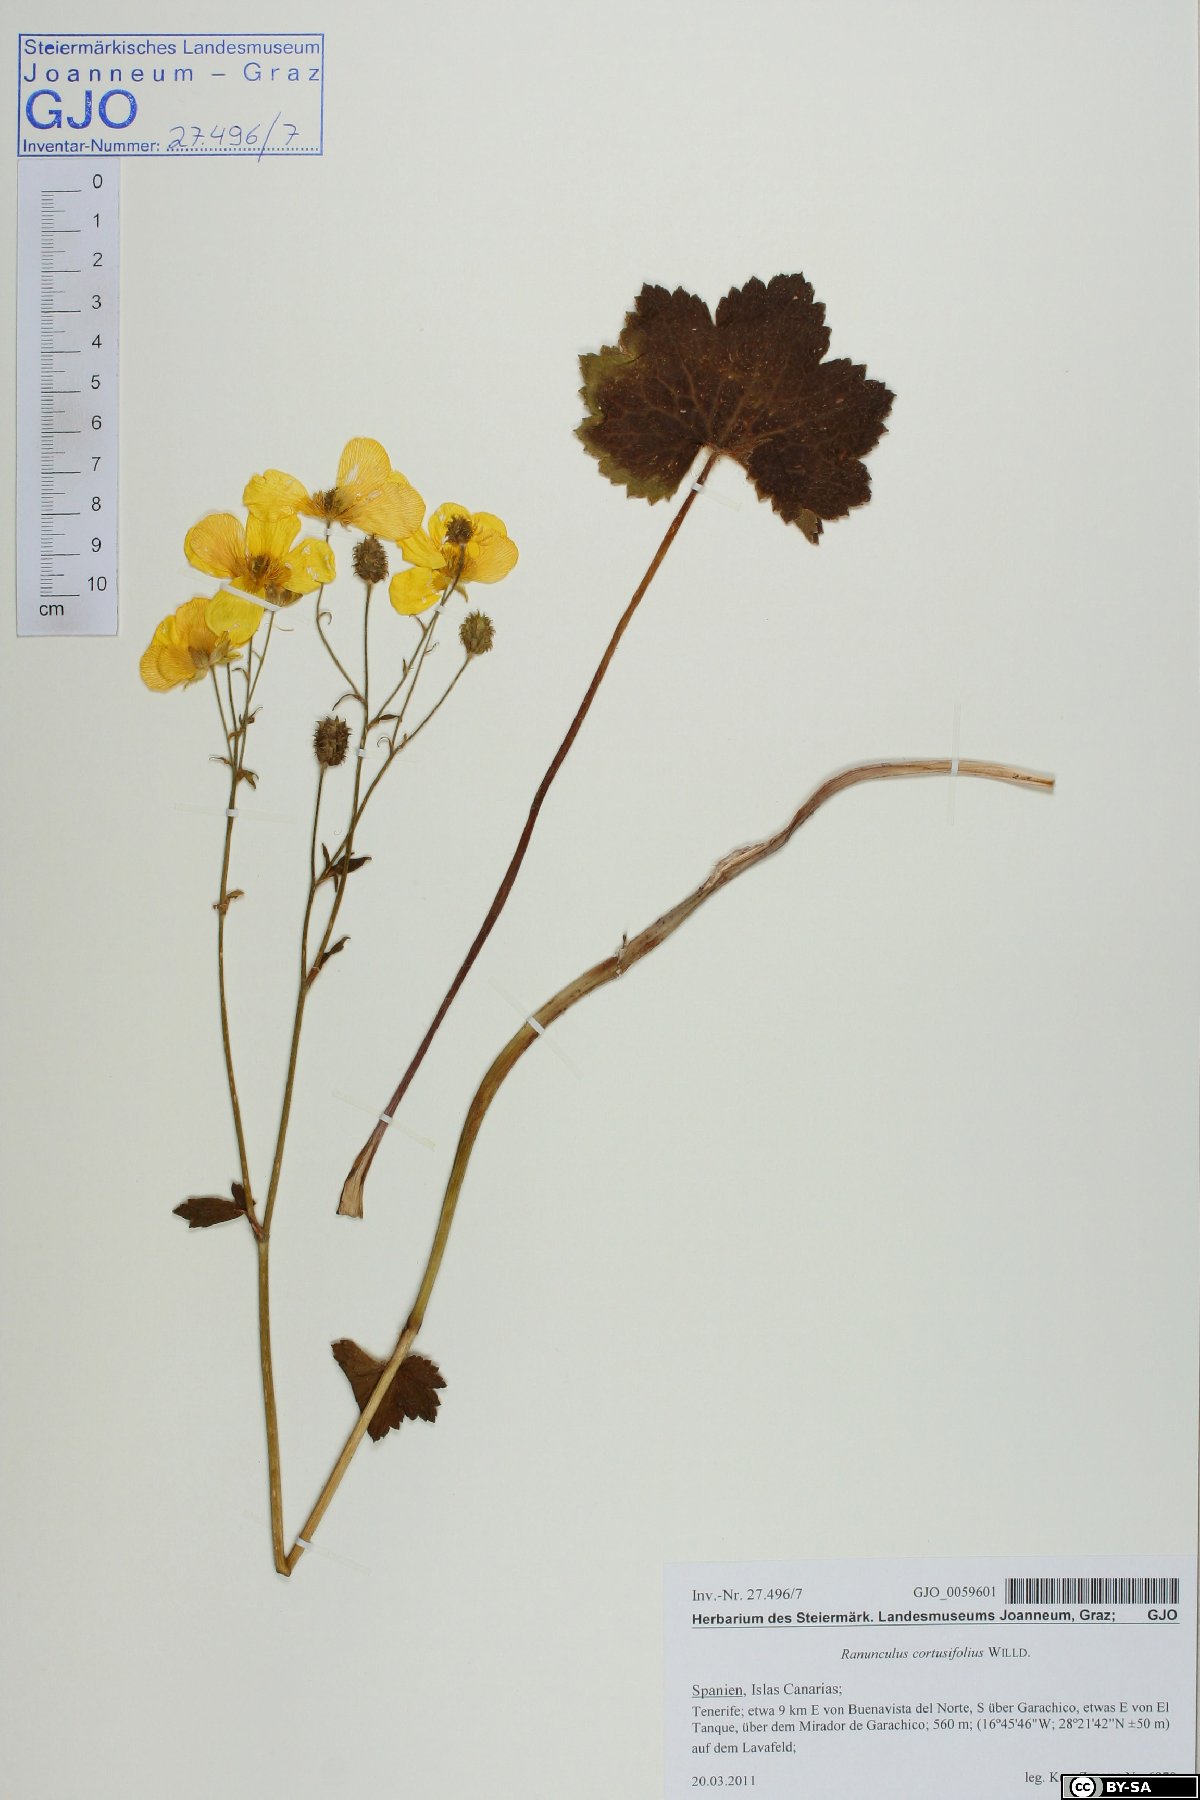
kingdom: Plantae
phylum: Tracheophyta
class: Magnoliopsida
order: Ranunculales
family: Ranunculaceae
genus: Ranunculus
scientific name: Ranunculus cortusifolius
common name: Azores buttercup
